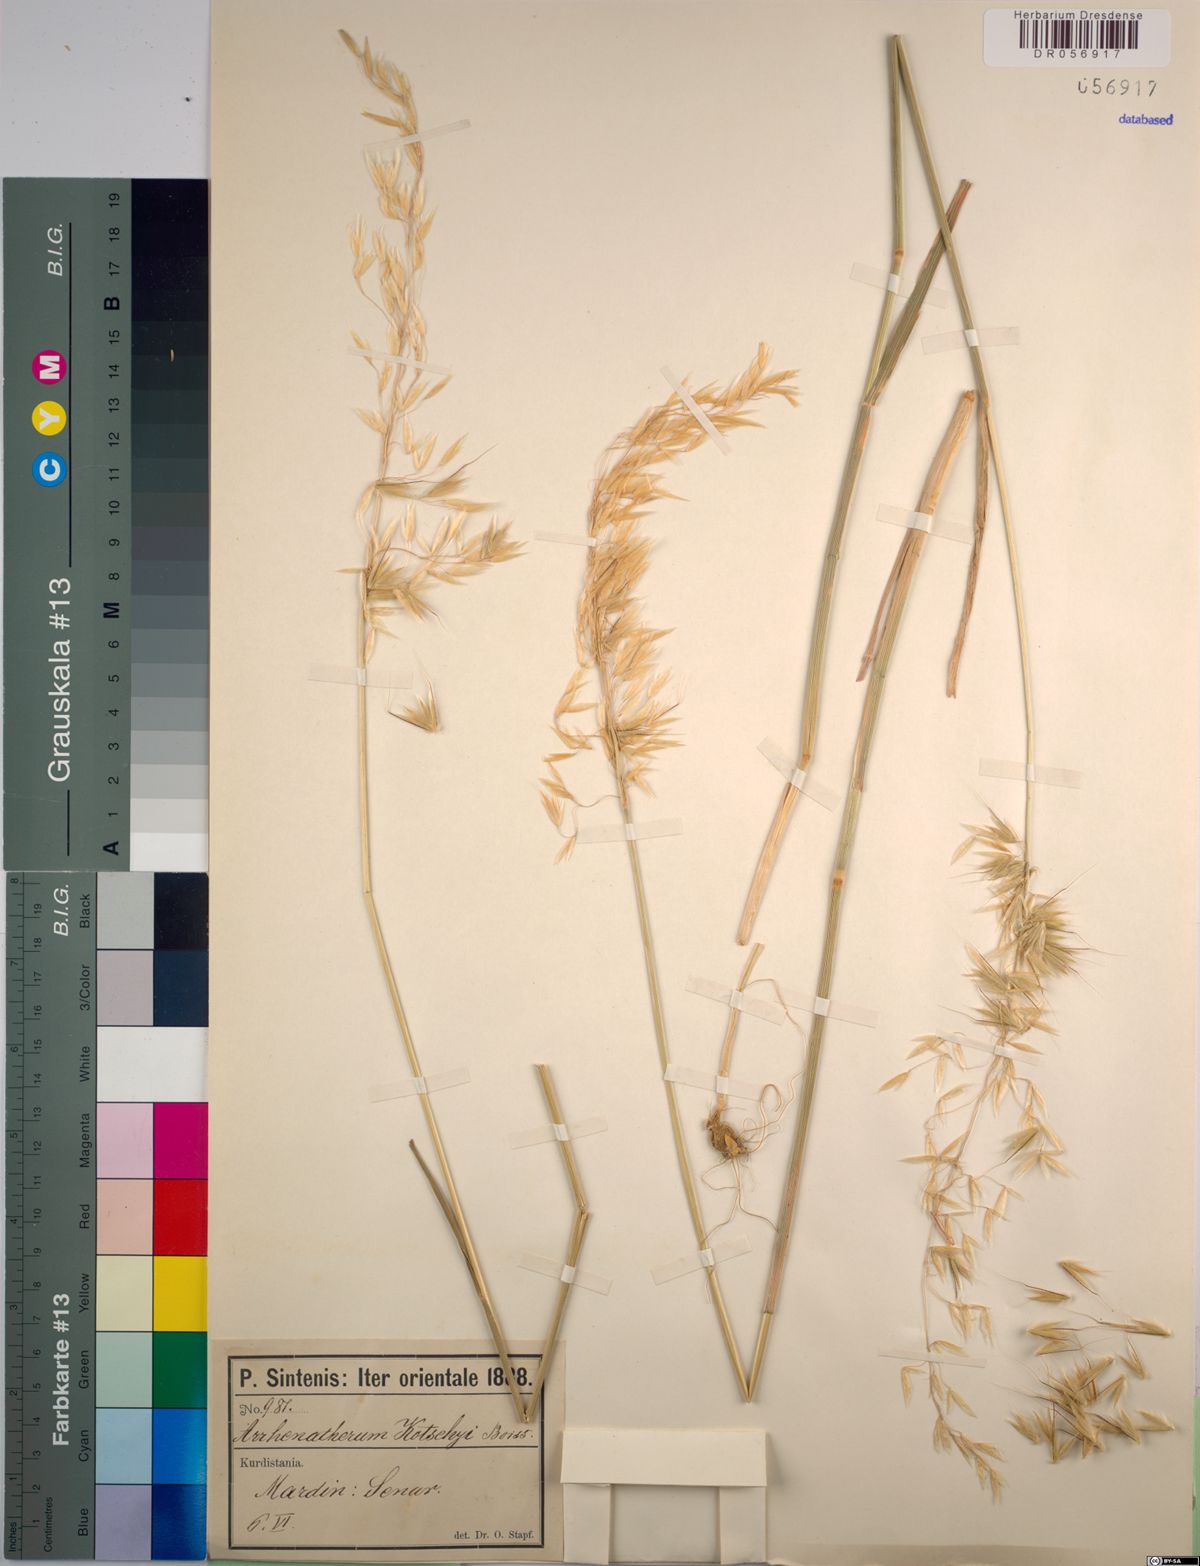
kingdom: Plantae
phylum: Tracheophyta
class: Liliopsida
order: Poales
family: Poaceae
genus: Arrhenatherum
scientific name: Arrhenatherum kotschyi
